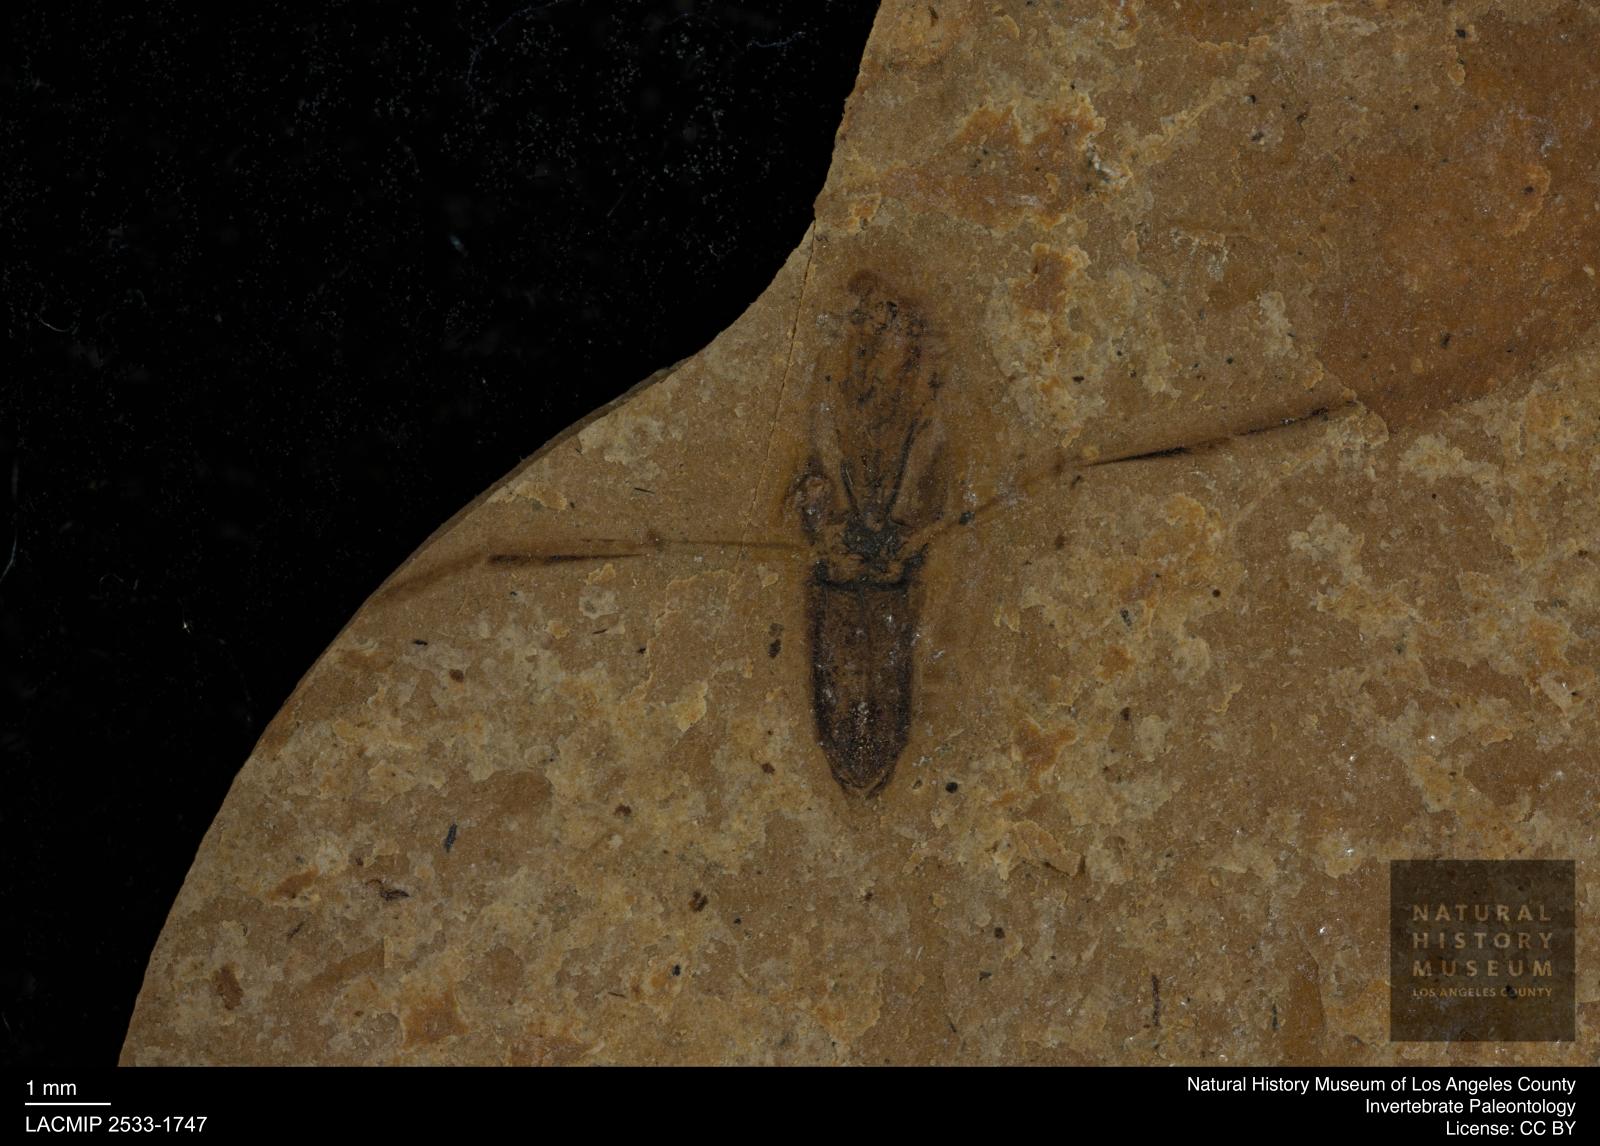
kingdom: Animalia
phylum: Arthropoda
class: Insecta
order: Hemiptera
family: Notonectidae
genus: Notonecta
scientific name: Notonecta
